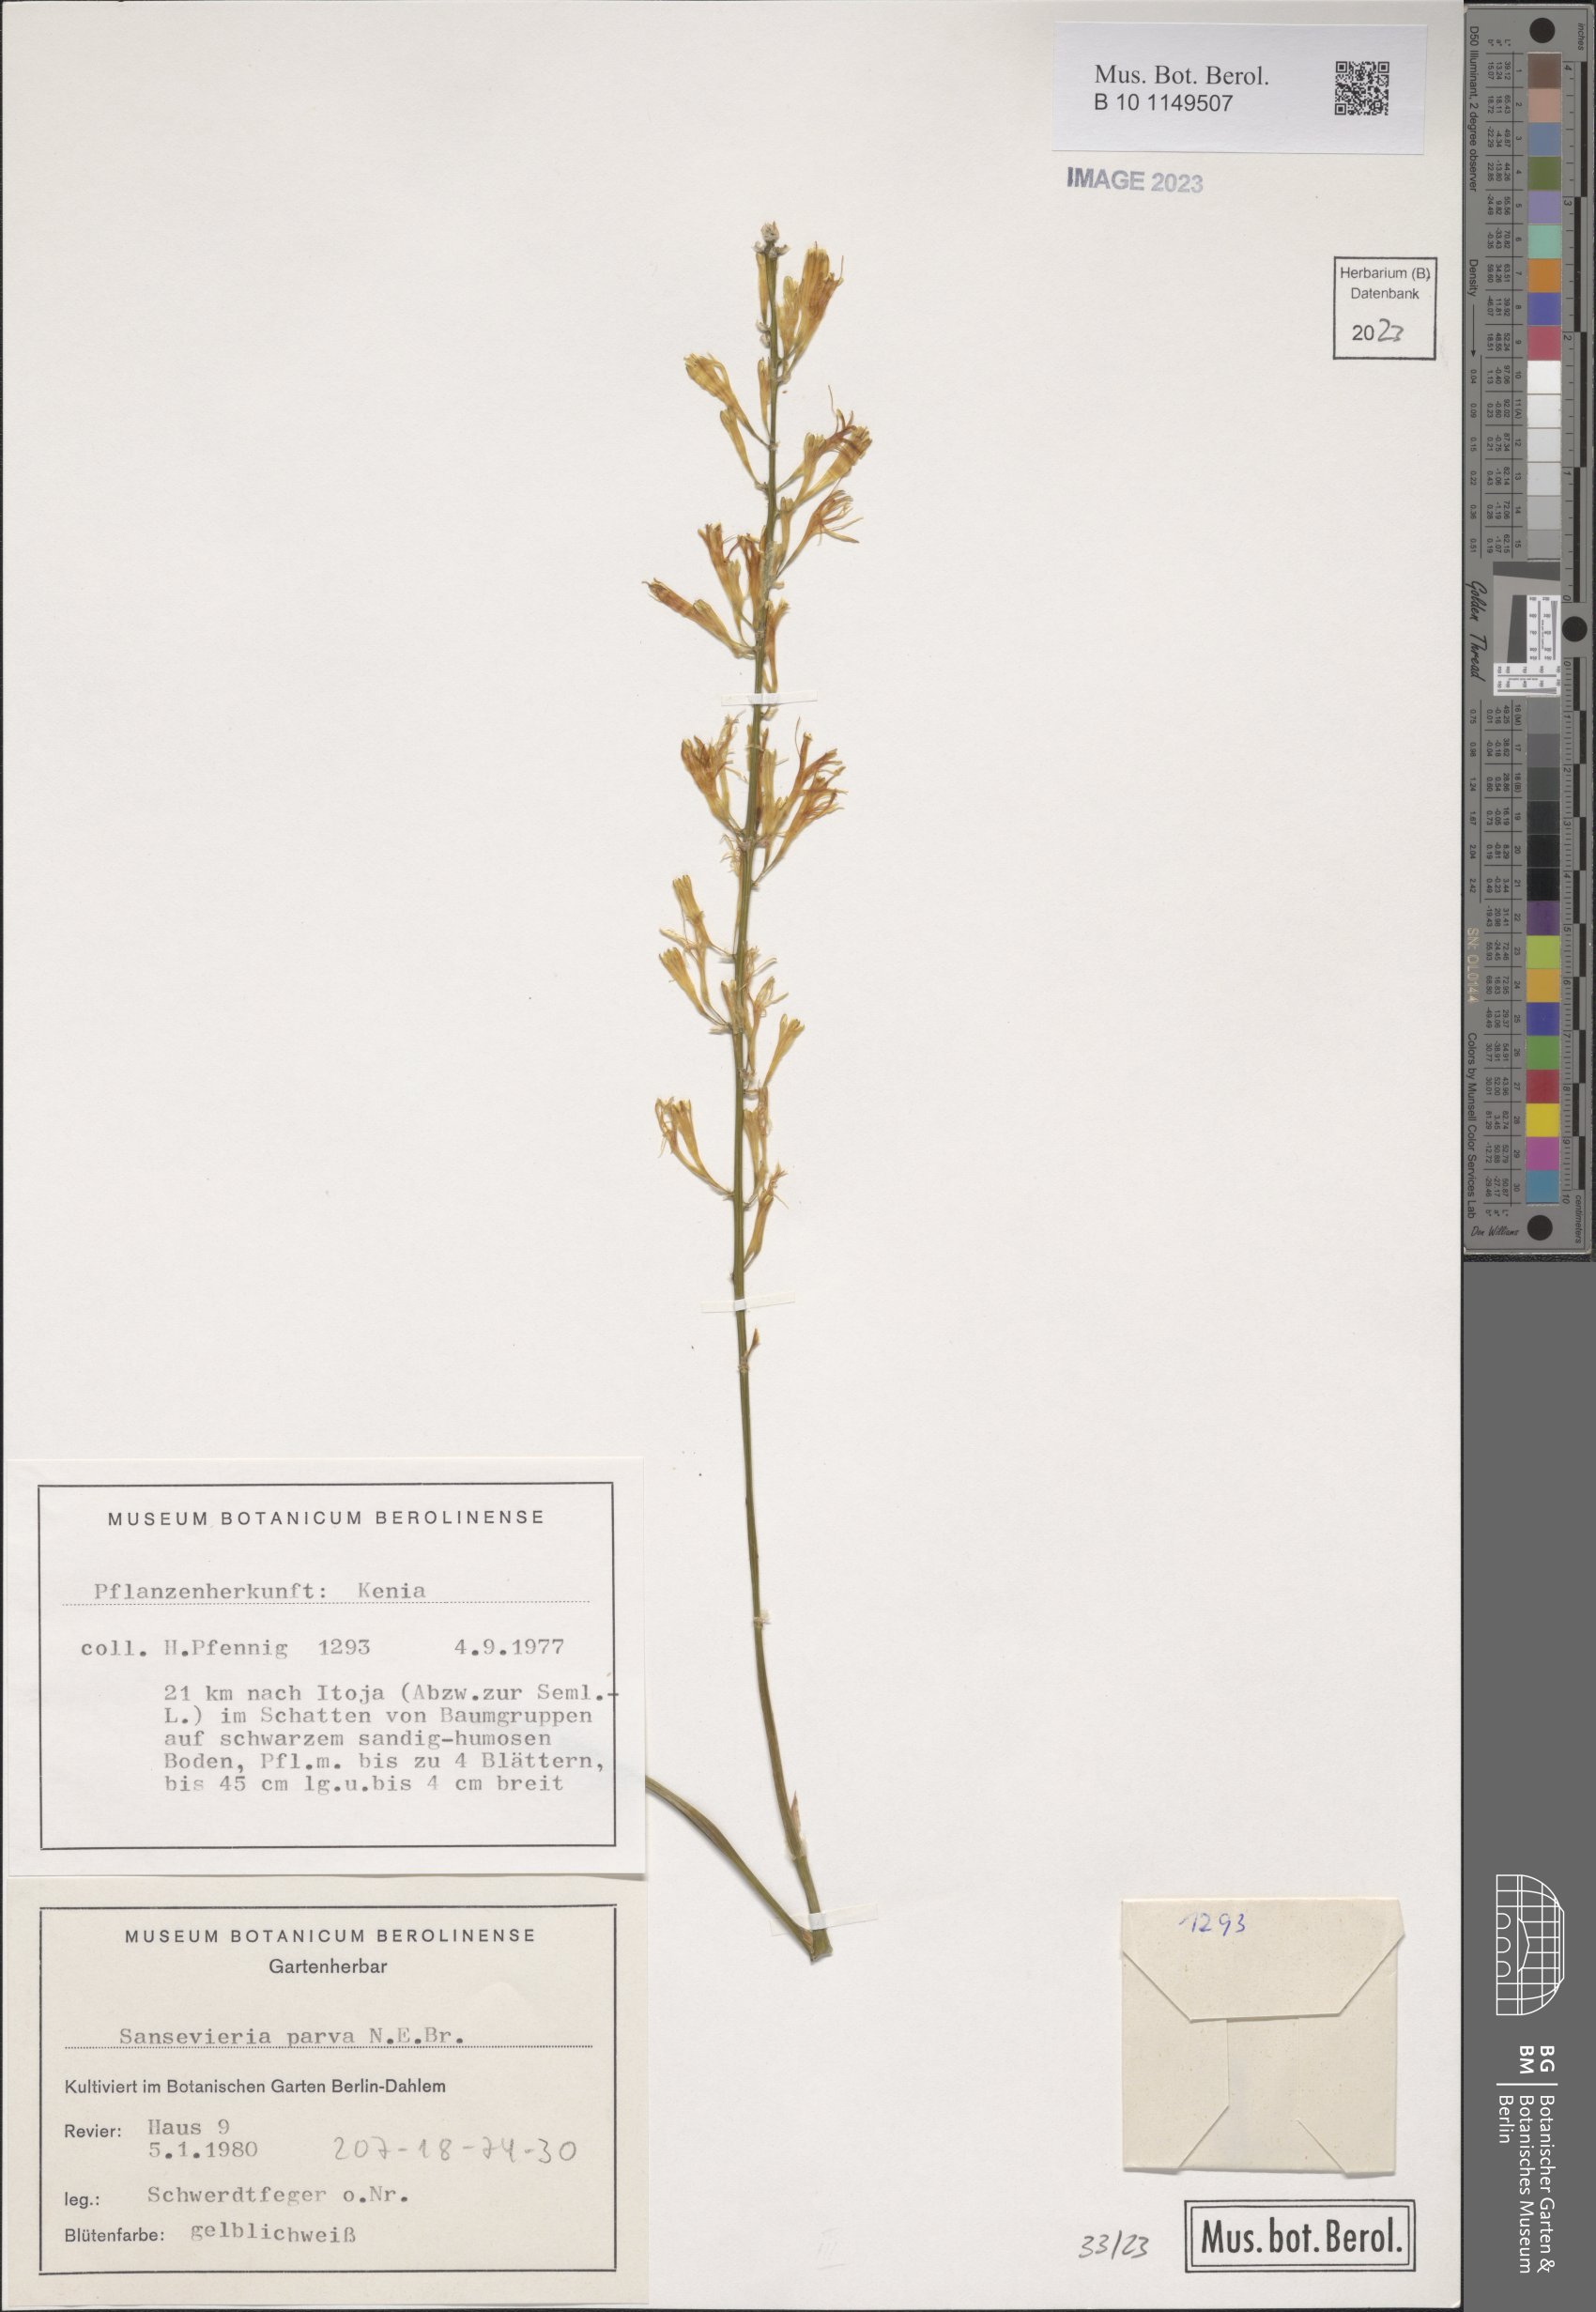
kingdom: Plantae
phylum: Tracheophyta
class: Liliopsida
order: Asparagales
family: Asparagaceae
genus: Dracaena
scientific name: Dracaena parva
